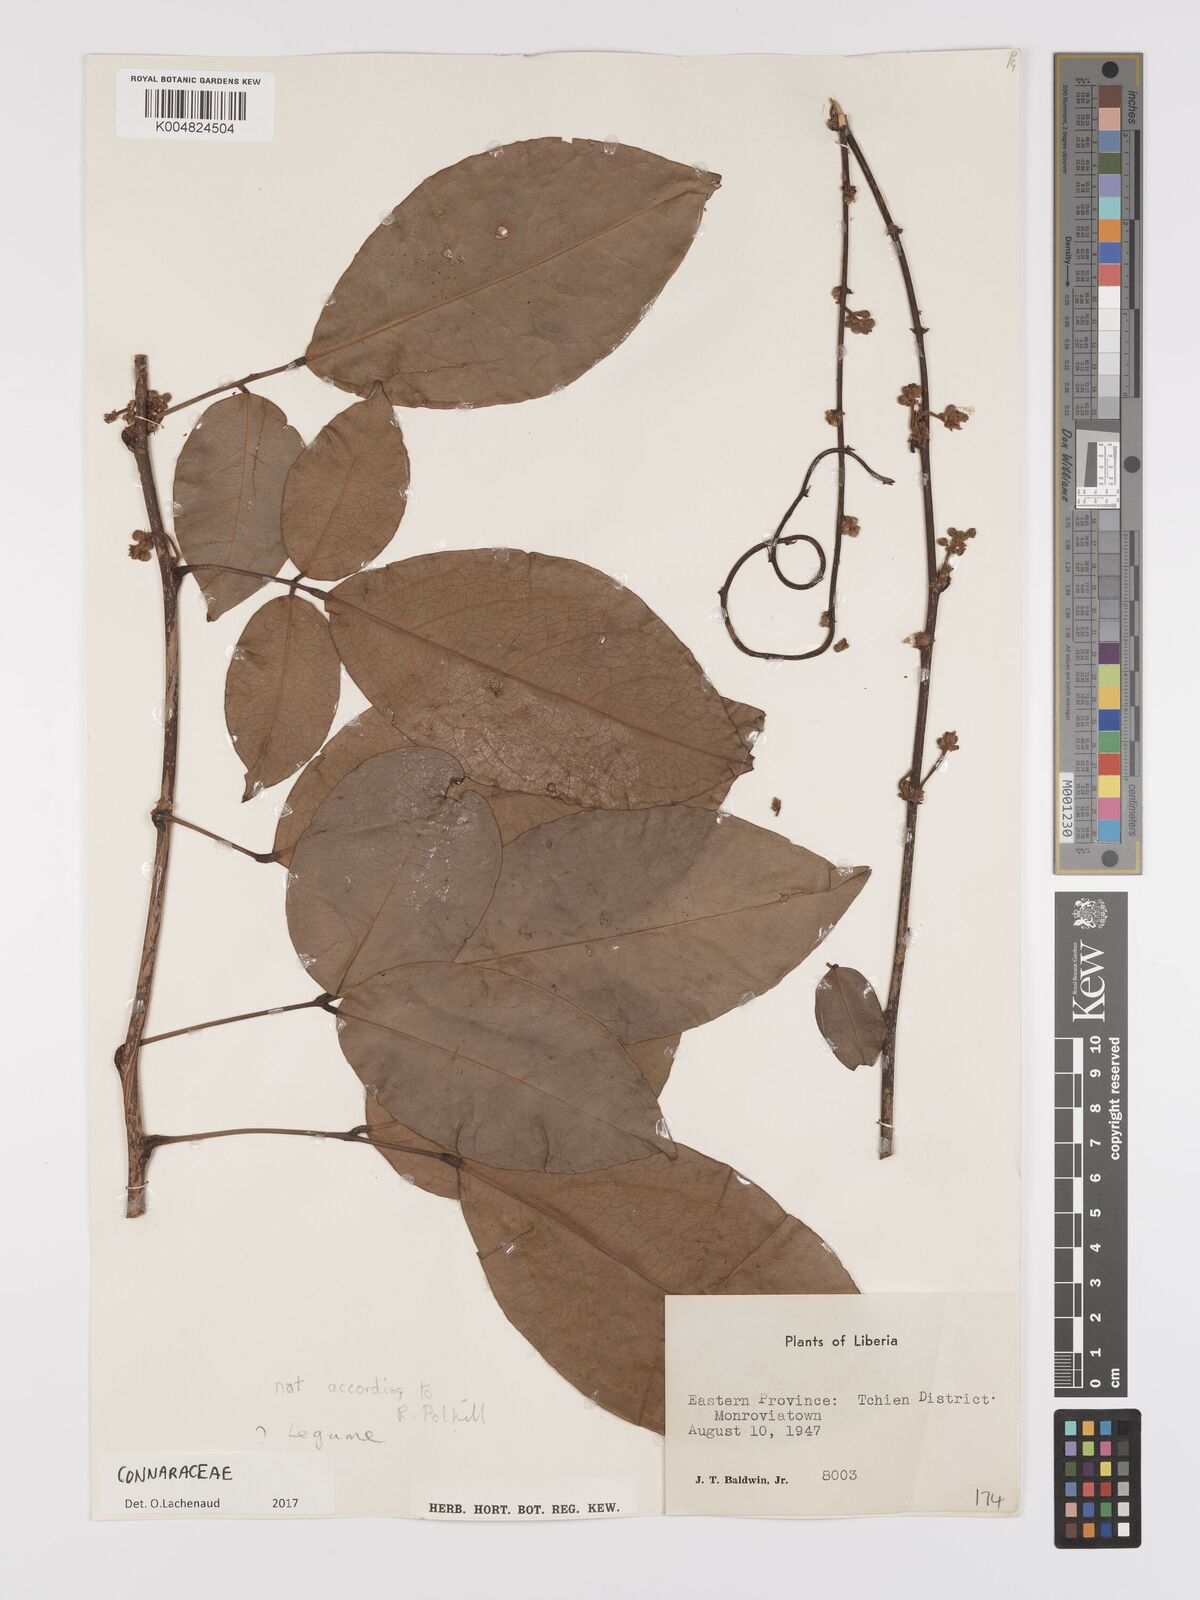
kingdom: Plantae
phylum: Tracheophyta
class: Magnoliopsida
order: Oxalidales
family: Connaraceae
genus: Connarus
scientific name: Connarus
